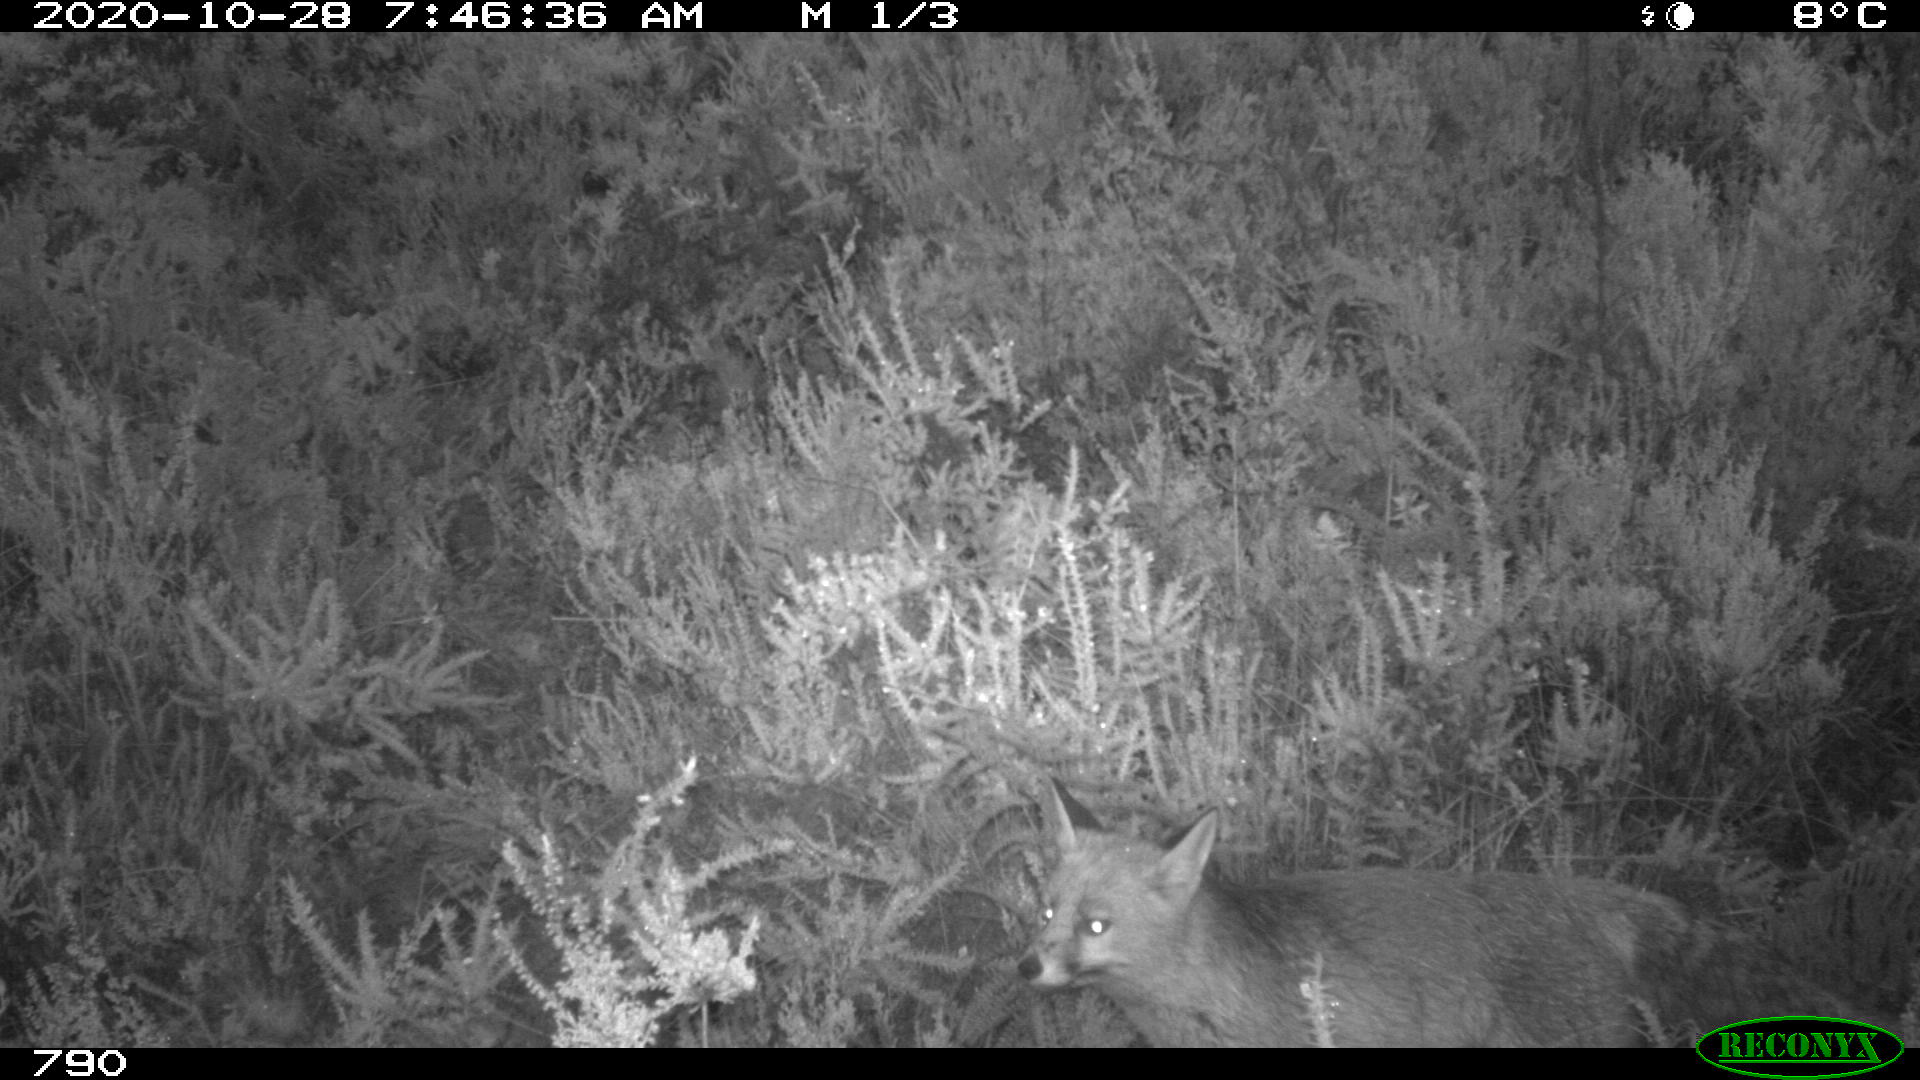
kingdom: Animalia
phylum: Chordata
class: Mammalia
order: Carnivora
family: Canidae
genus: Vulpes
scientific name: Vulpes vulpes
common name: Red fox
